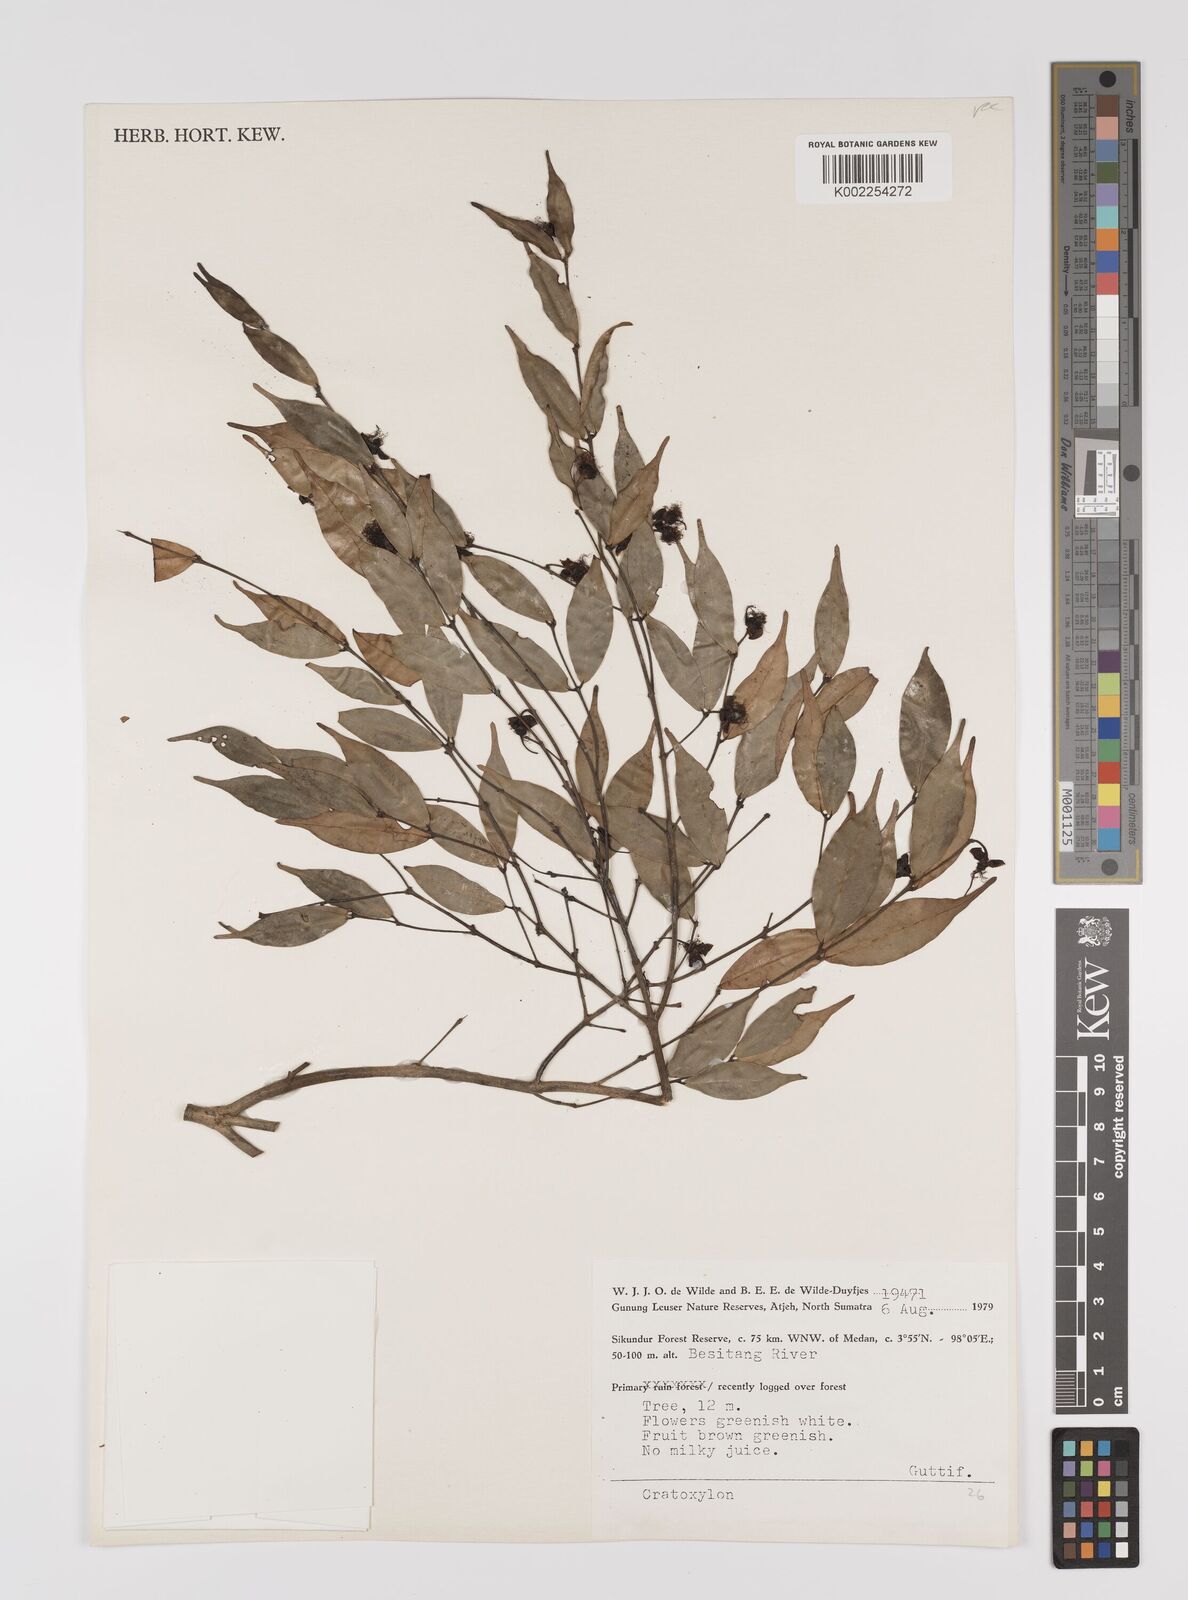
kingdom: Plantae
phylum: Tracheophyta
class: Magnoliopsida
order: Malpighiales
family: Hypericaceae
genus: Cratoxylum
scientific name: Cratoxylum
